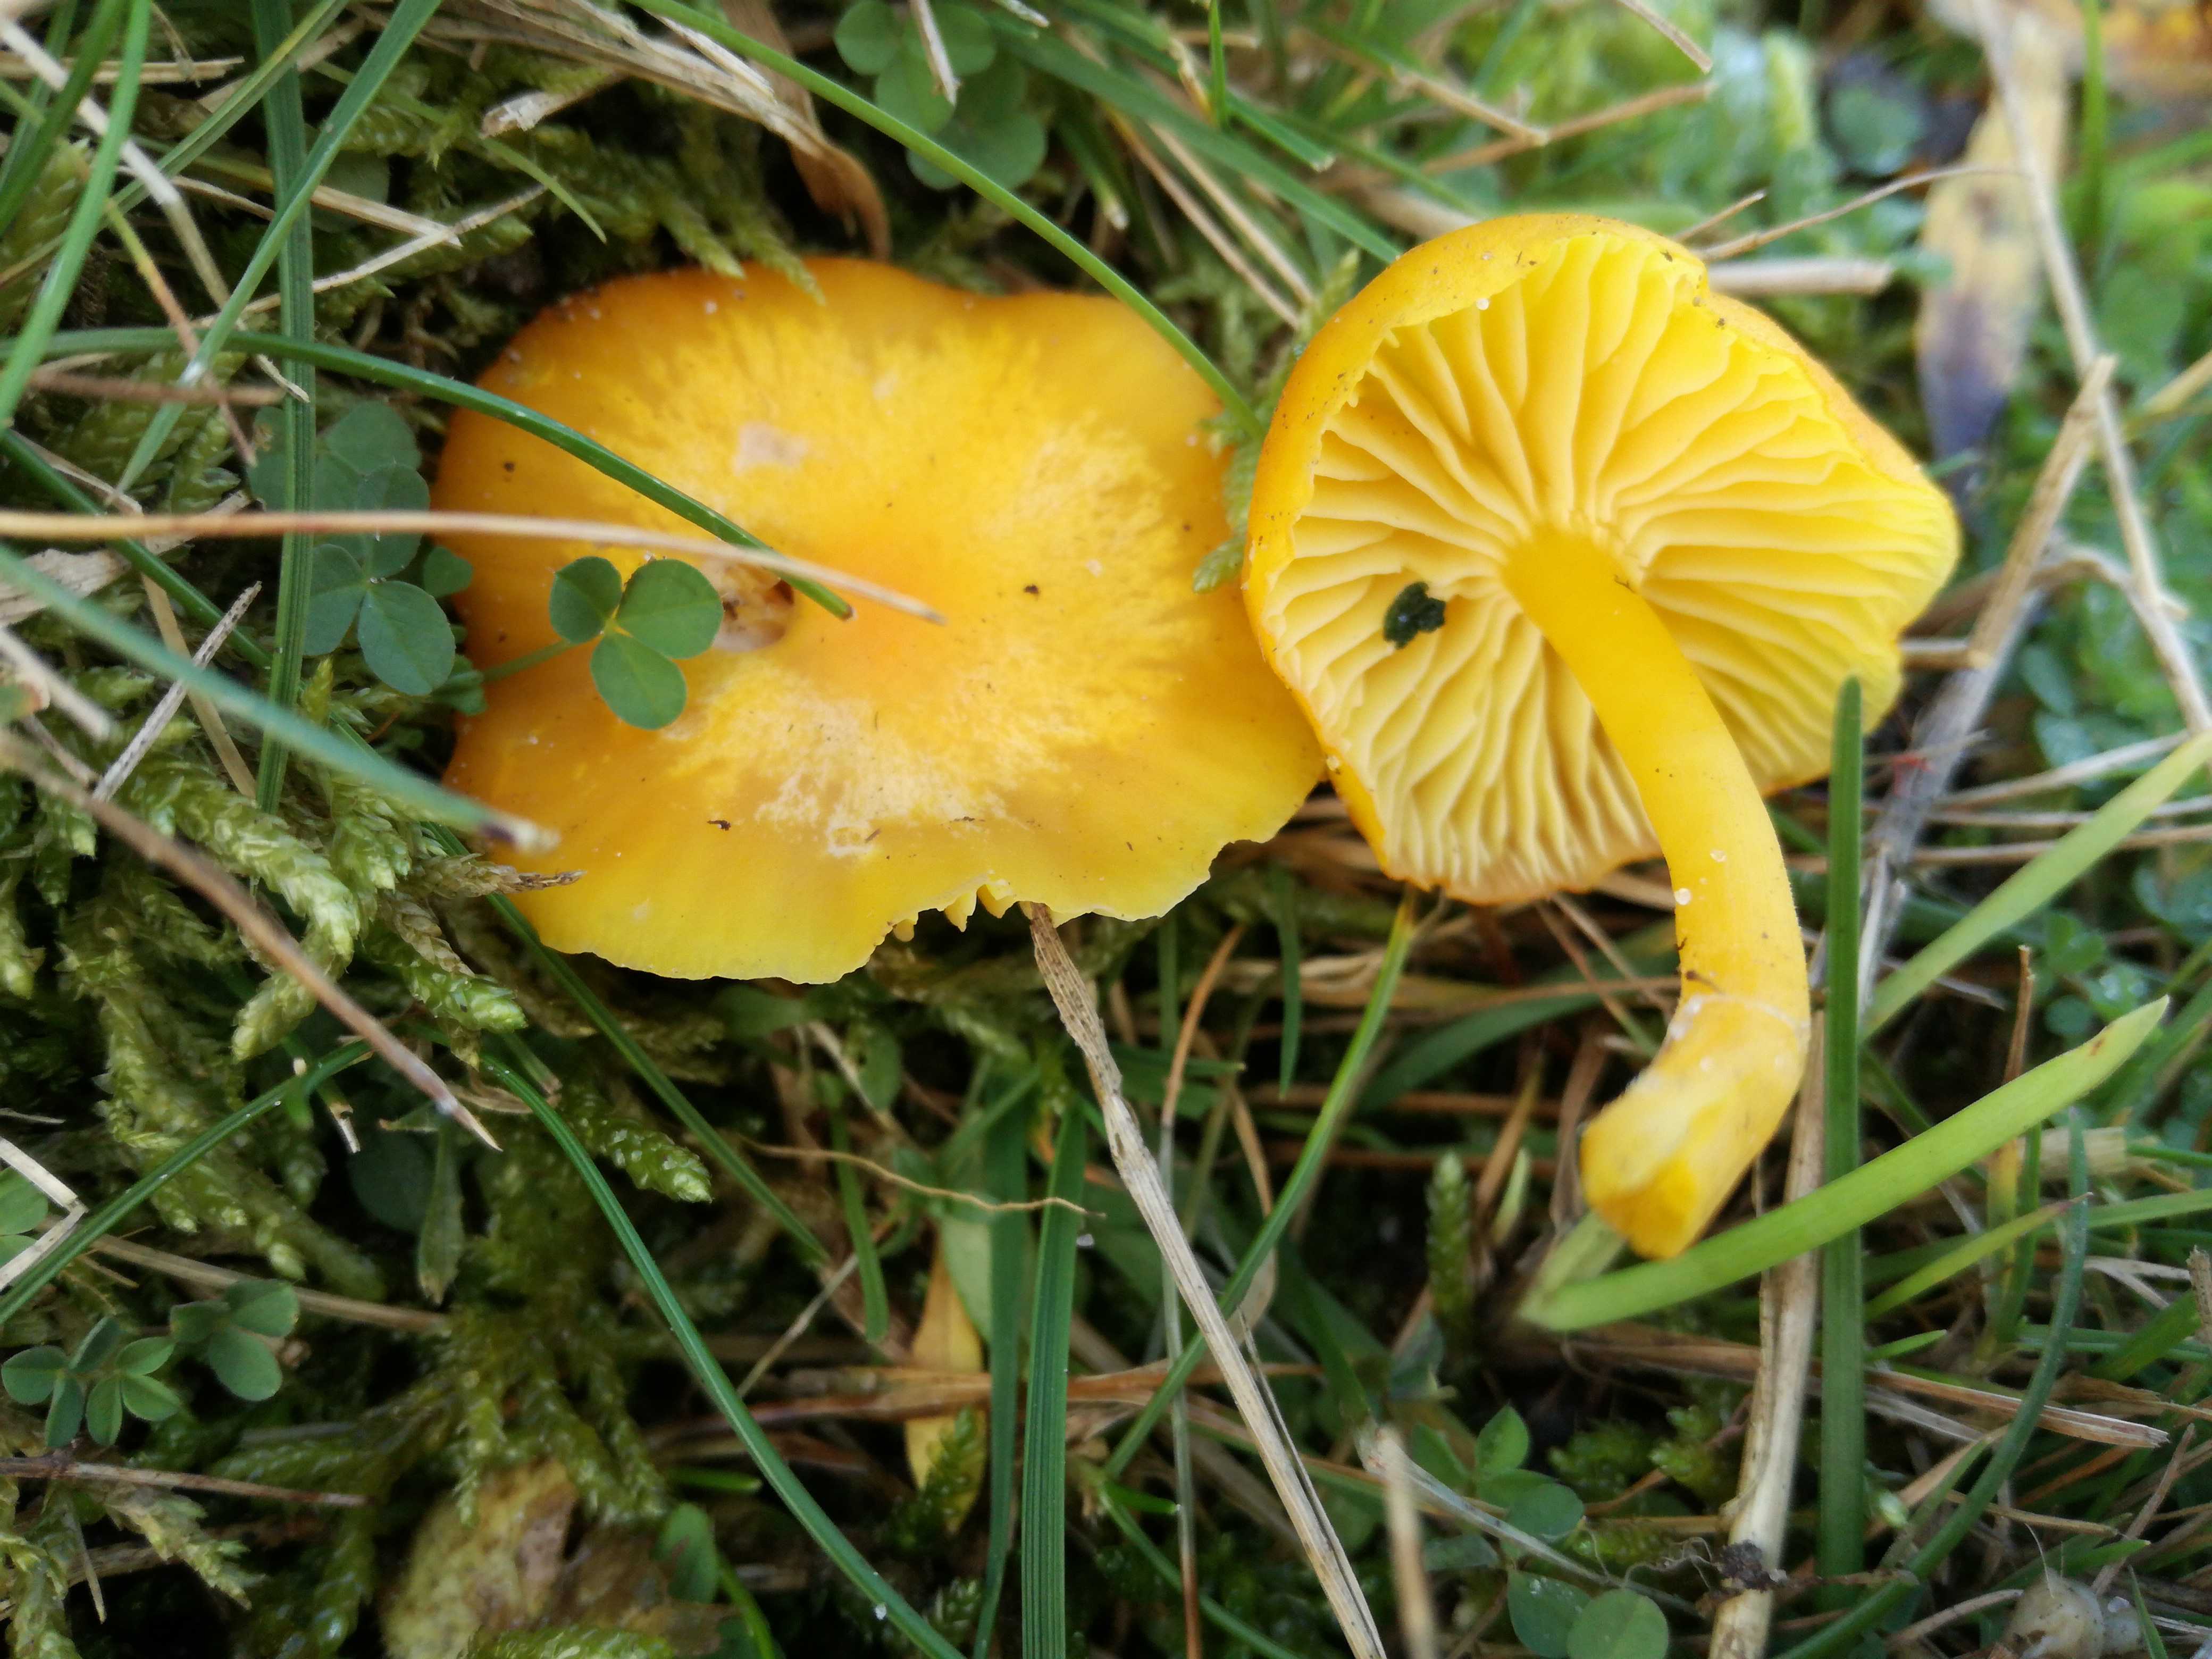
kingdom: Fungi
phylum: Basidiomycota
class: Agaricomycetes
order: Agaricales
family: Hygrophoraceae
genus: Hygrocybe
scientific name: Hygrocybe ceracea
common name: voksgul vokshat
